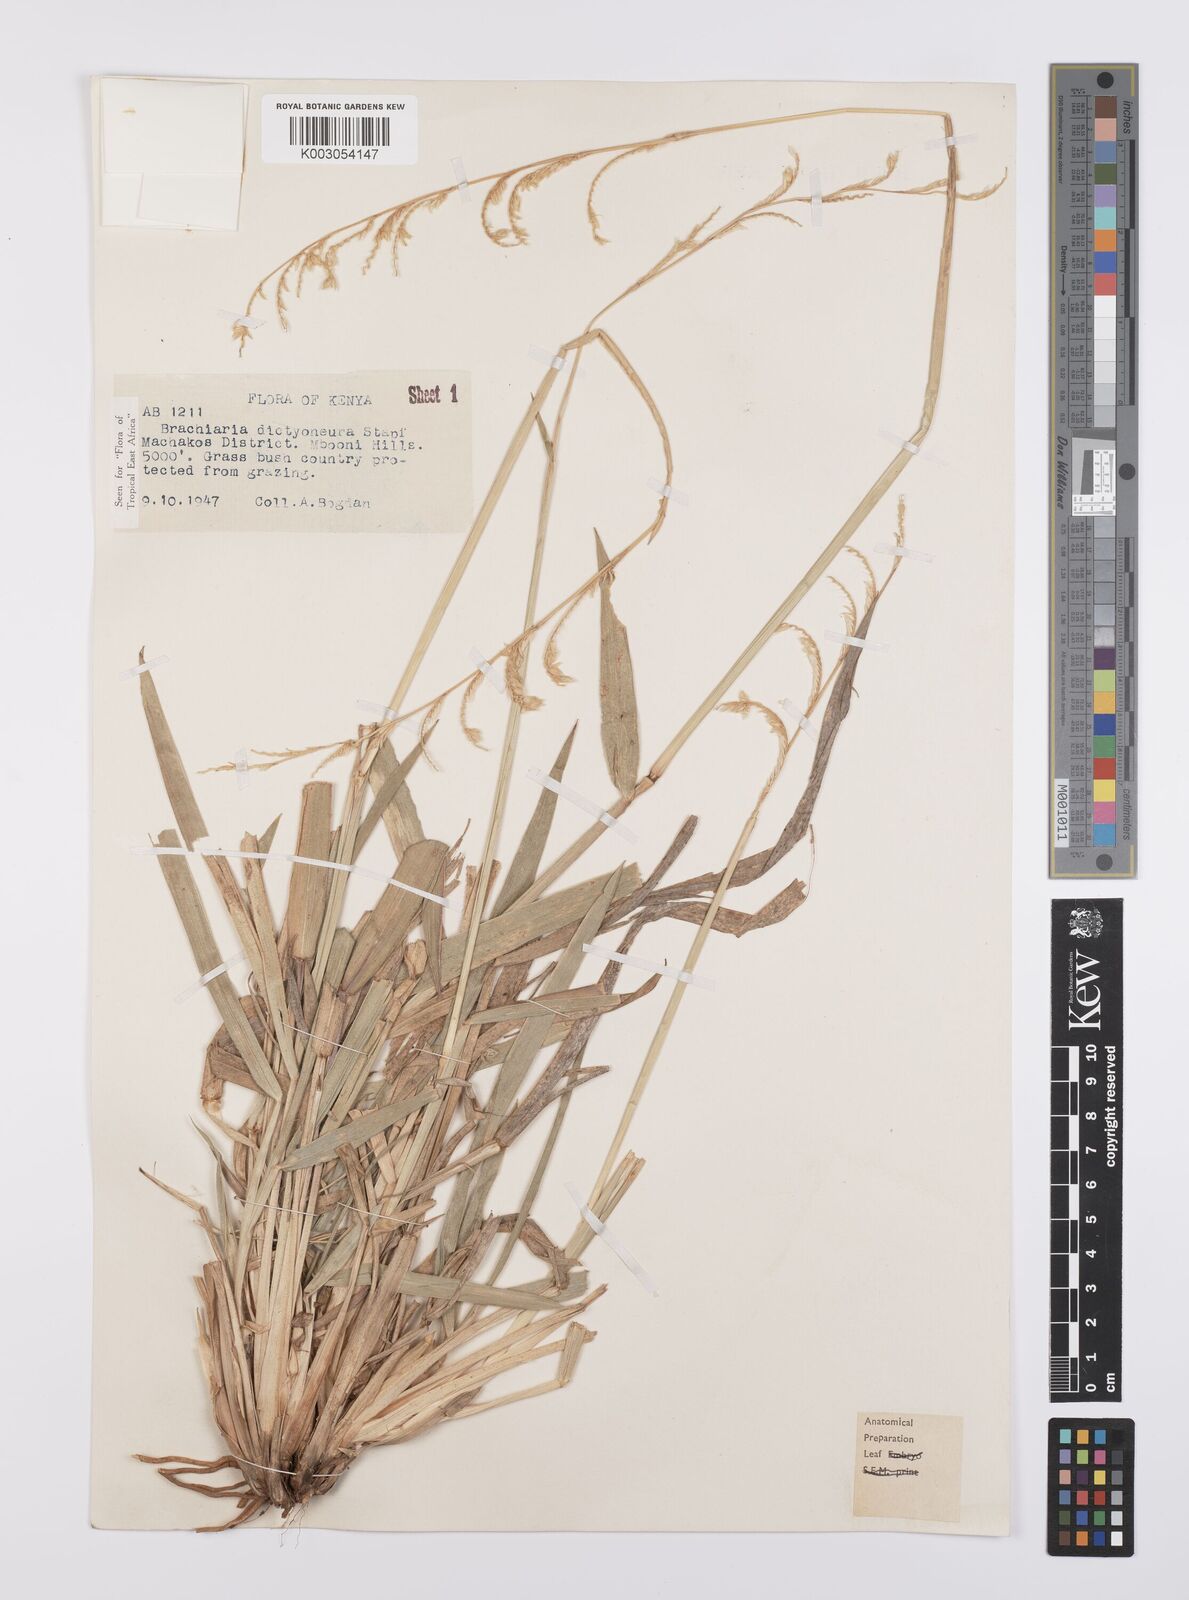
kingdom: Plantae
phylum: Tracheophyta
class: Liliopsida
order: Poales
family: Poaceae
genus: Urochloa
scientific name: Urochloa dictyoneura
